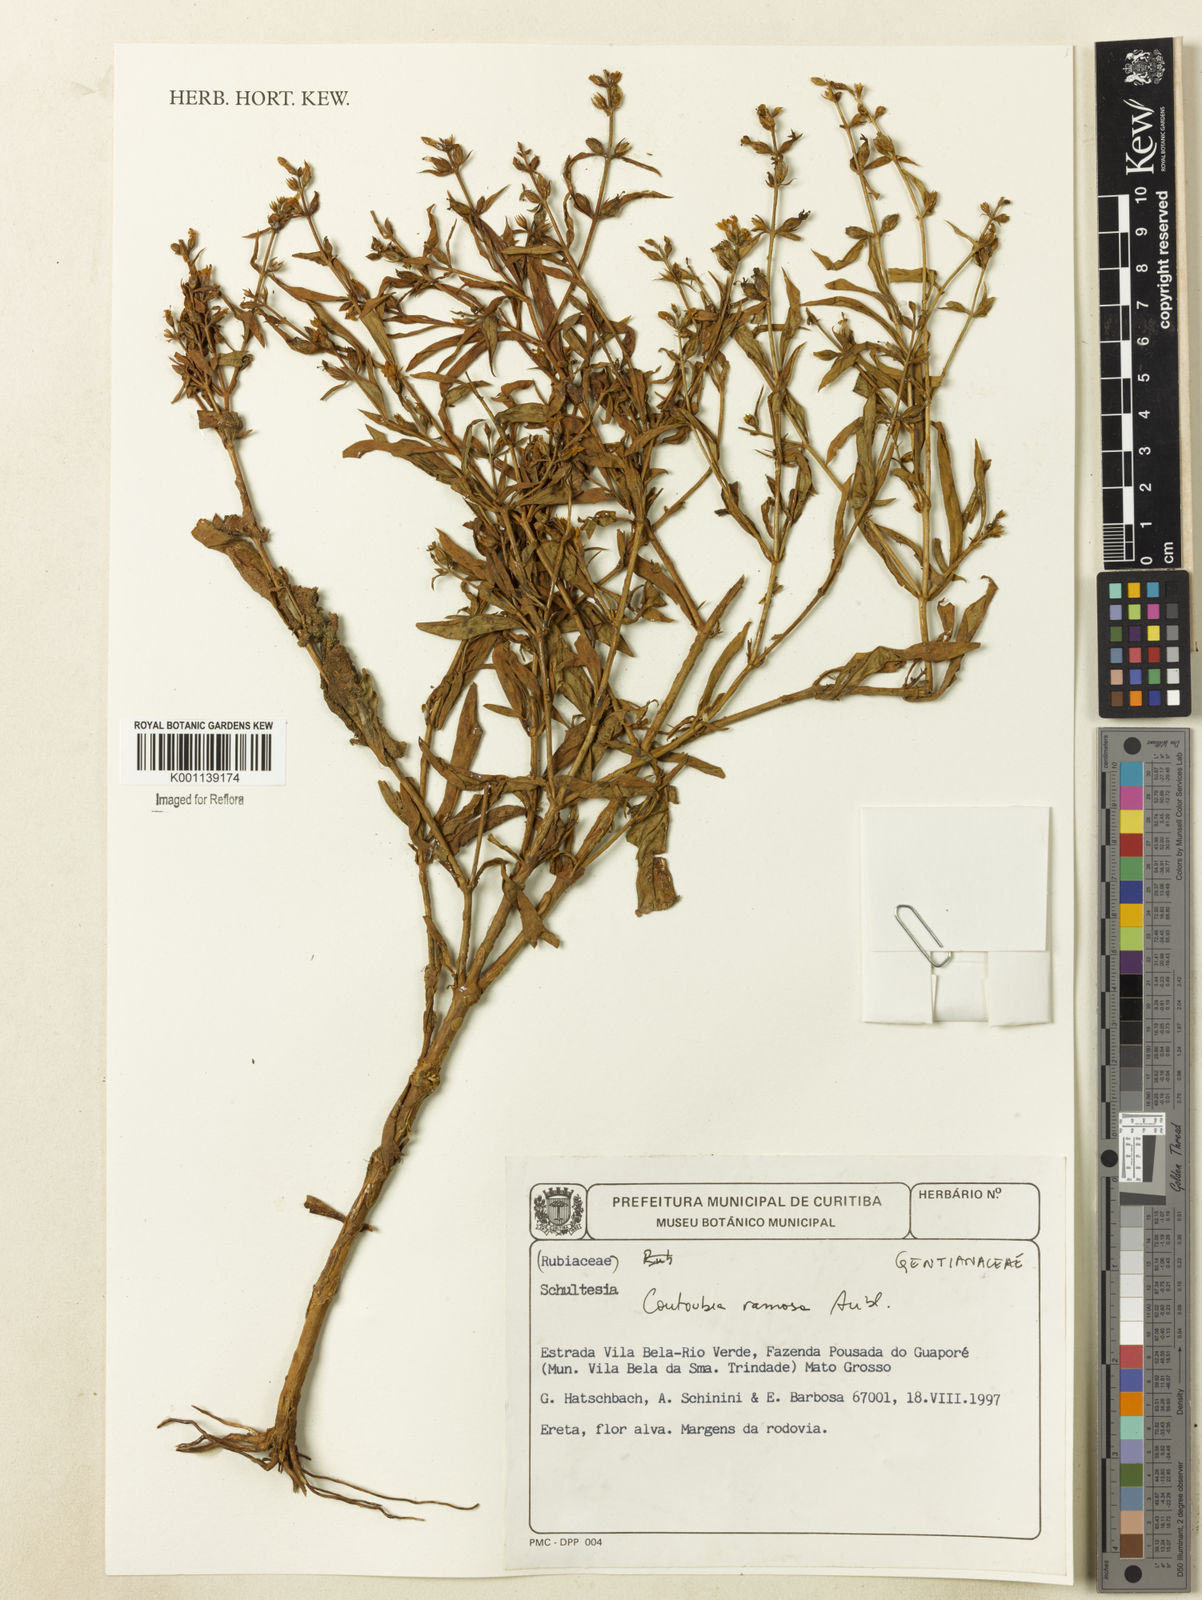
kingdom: Plantae
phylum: Tracheophyta
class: Magnoliopsida
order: Gentianales
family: Gentianaceae
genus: Coutoubea
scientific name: Coutoubea ramosa
